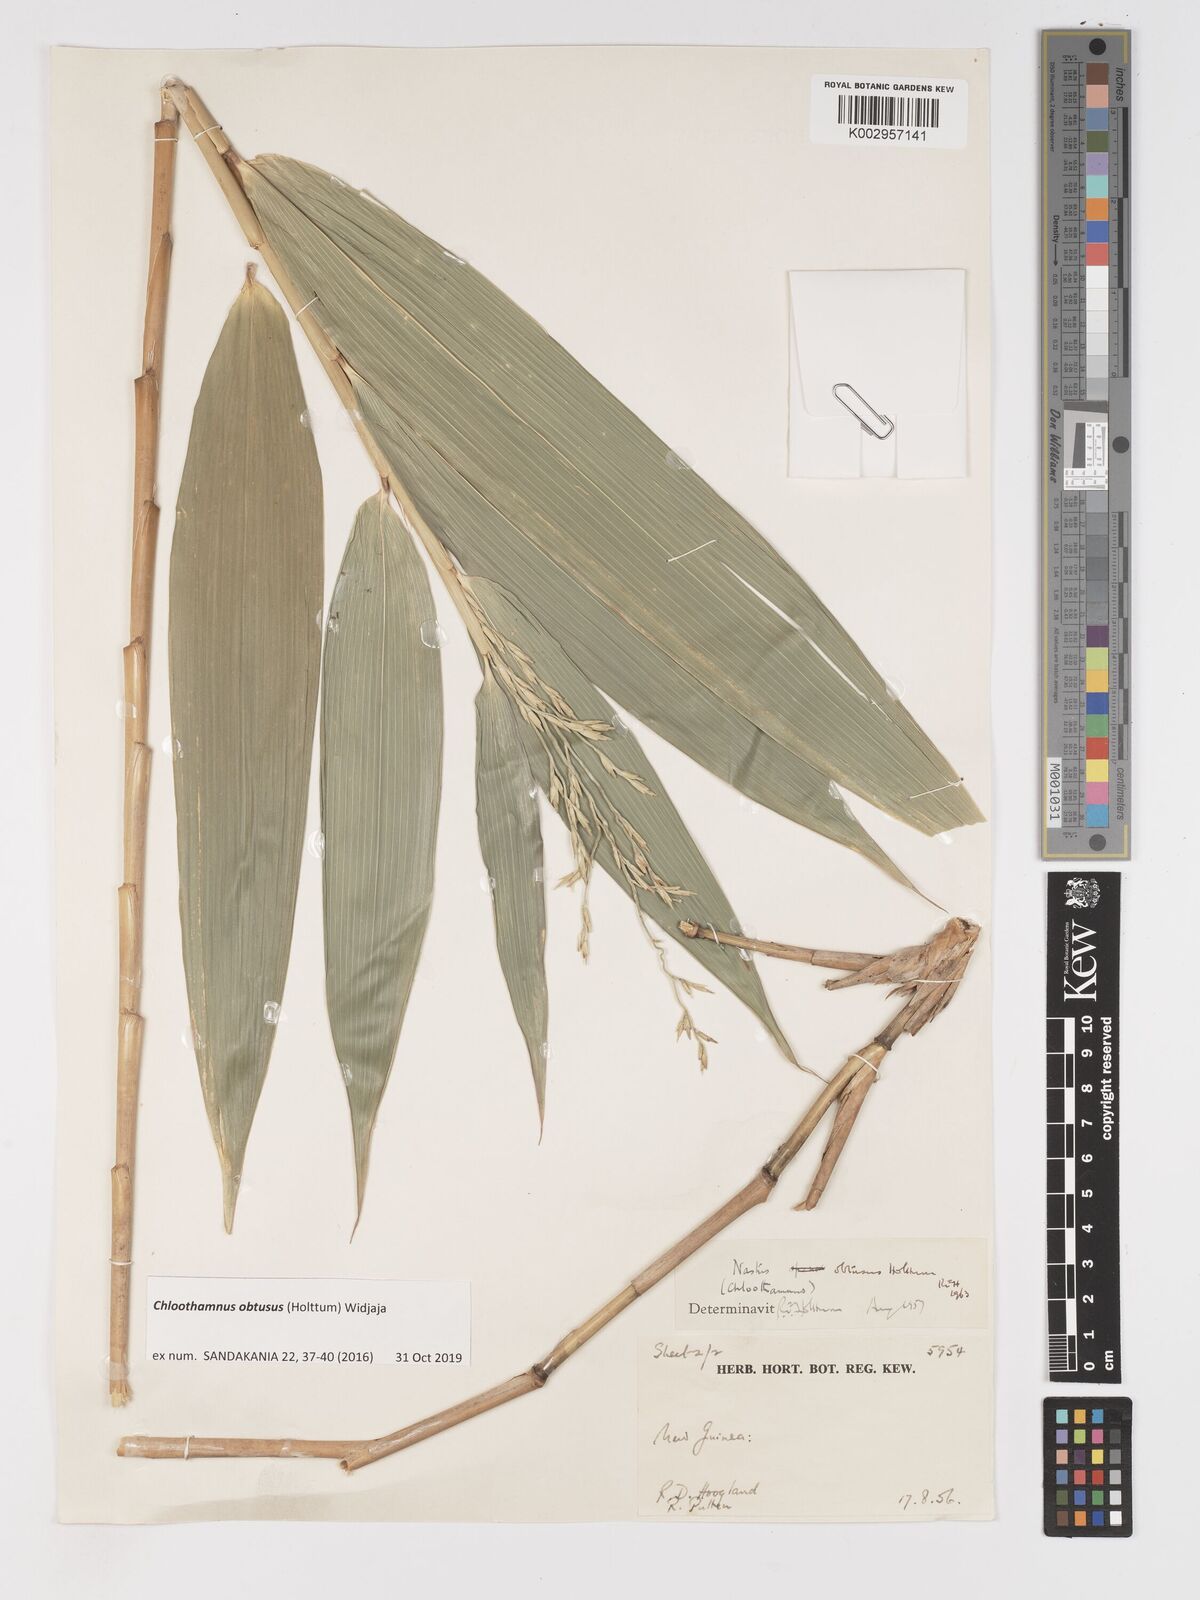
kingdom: Plantae
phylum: Tracheophyta
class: Liliopsida
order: Poales
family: Poaceae
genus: Chloothamnus
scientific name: Chloothamnus obtusus
